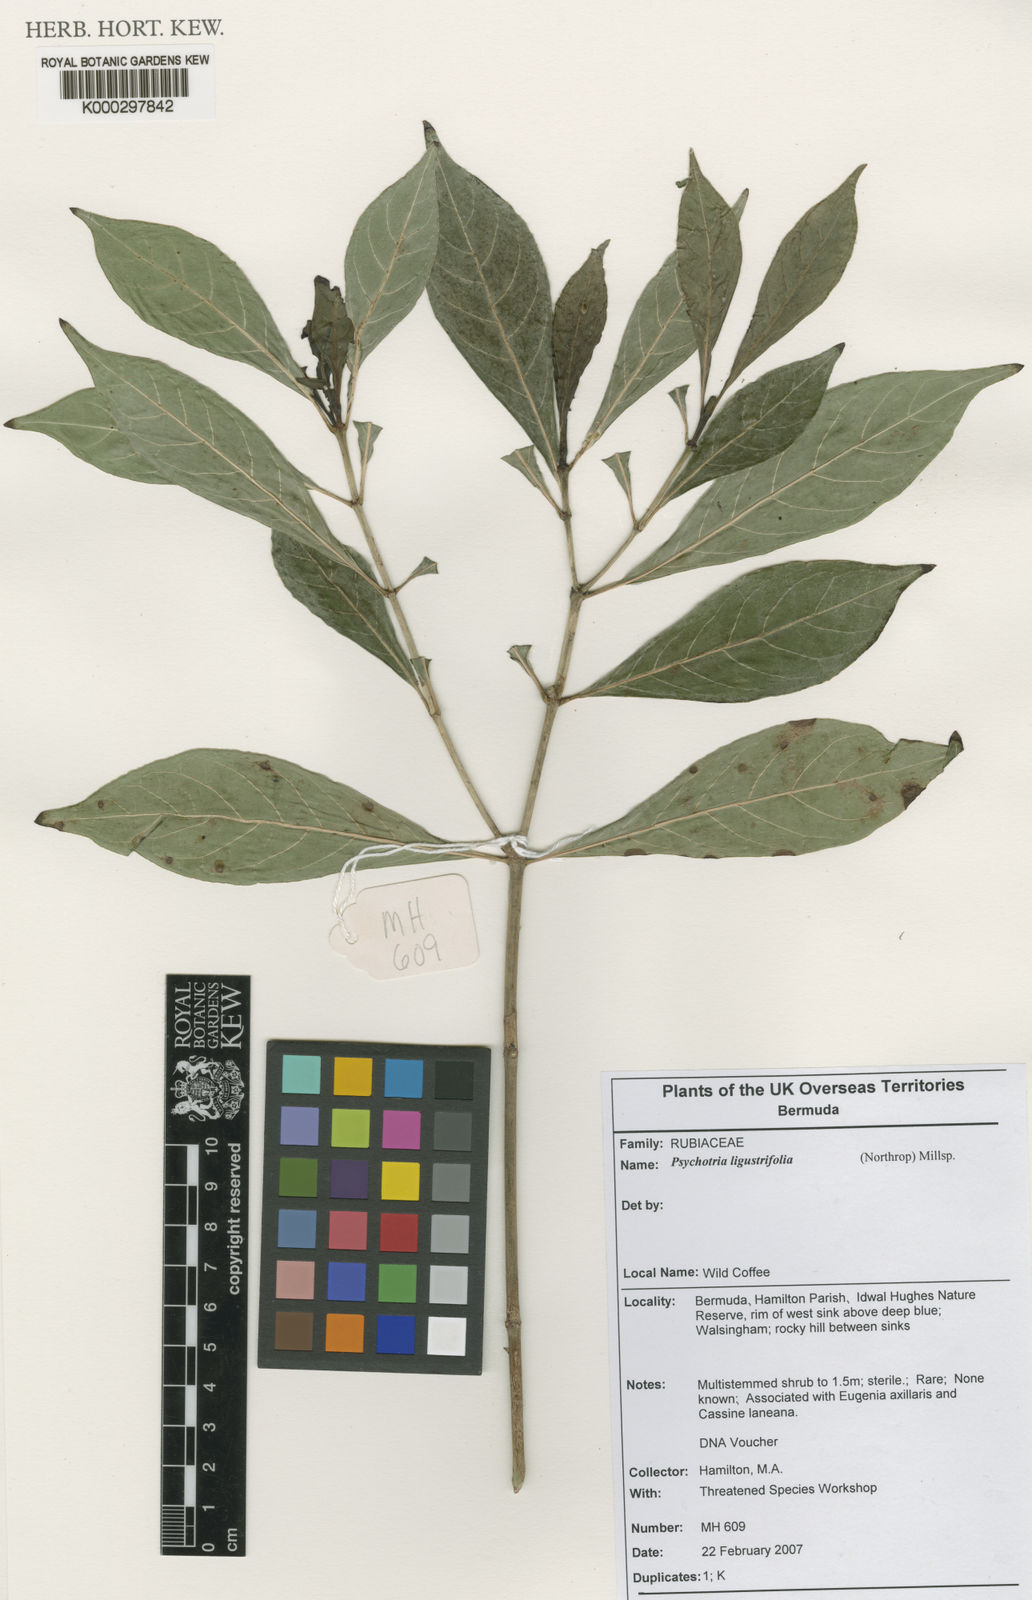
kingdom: Plantae
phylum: Tracheophyta
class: Magnoliopsida
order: Gentianales
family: Rubiaceae
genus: Psychotria
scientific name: Psychotria ligustrifolia
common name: Bahama wild coffee
